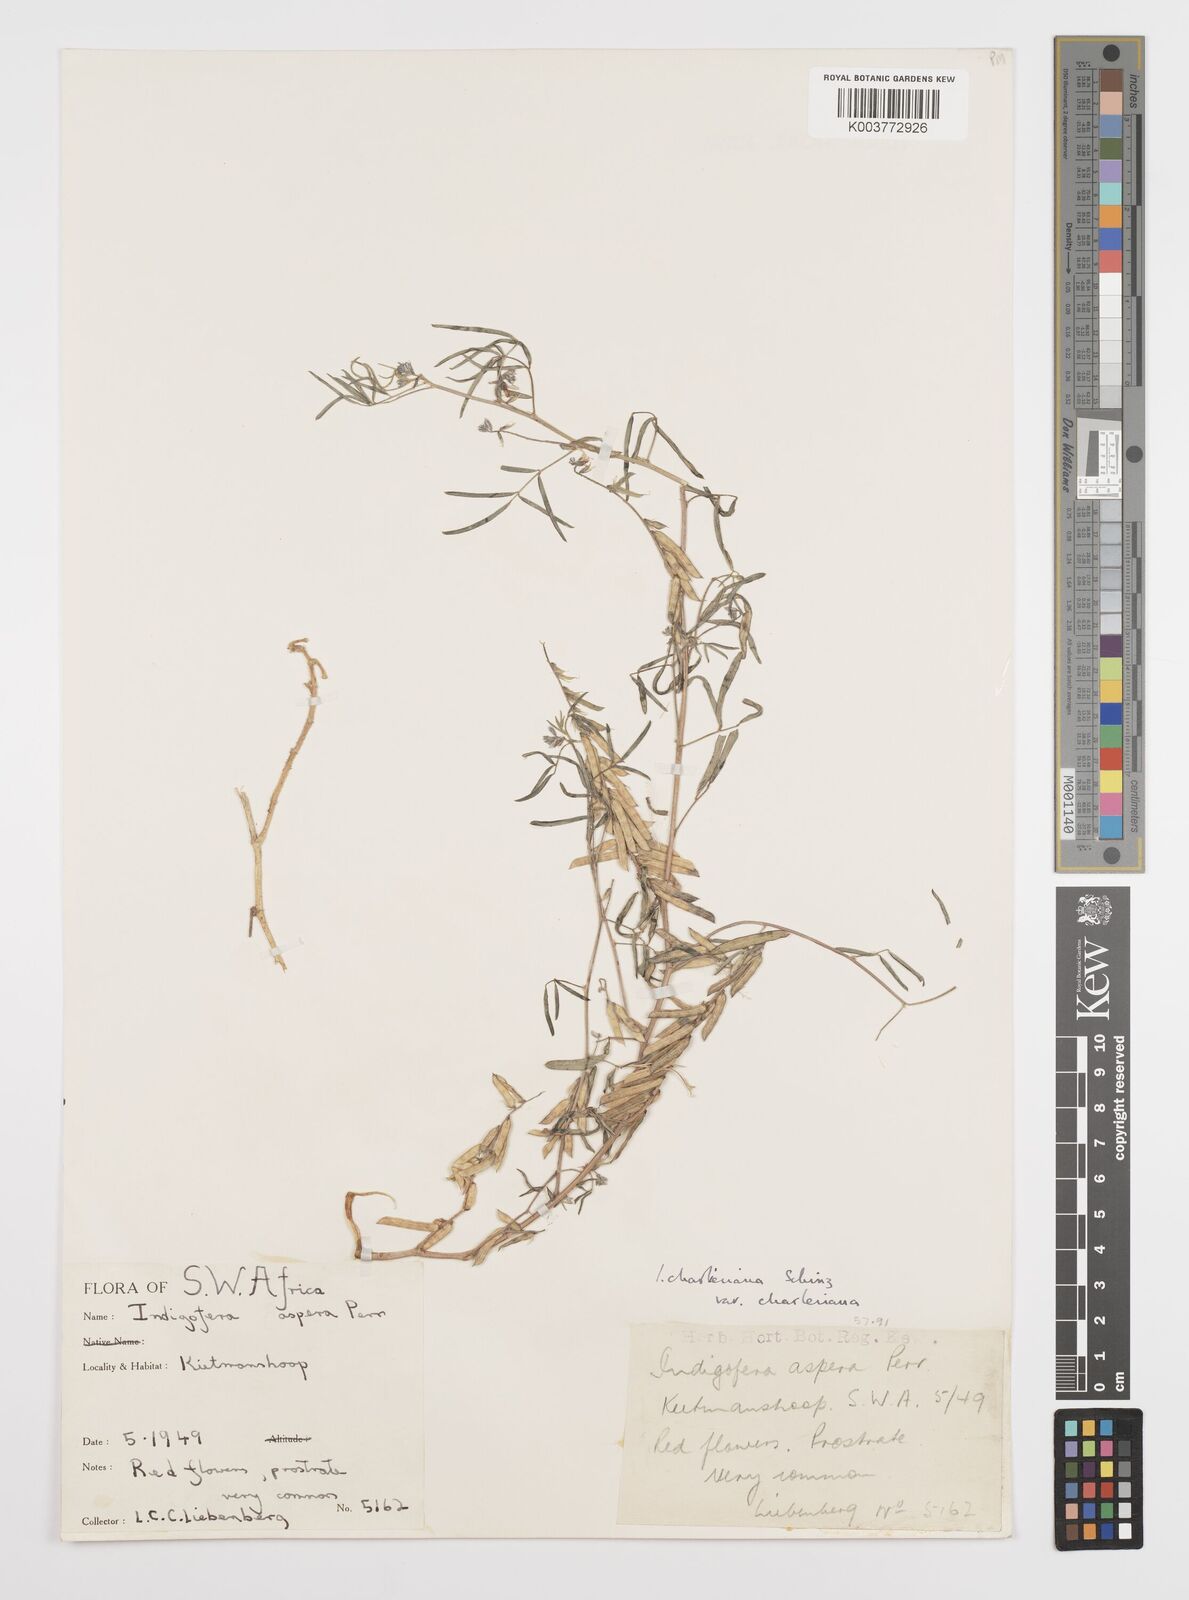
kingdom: Plantae
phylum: Tracheophyta
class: Magnoliopsida
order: Fabales
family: Fabaceae
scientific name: Fabaceae
